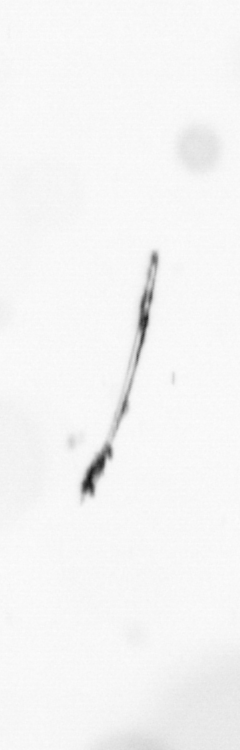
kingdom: Chromista
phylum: Ochrophyta
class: Bacillariophyceae
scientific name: Bacillariophyceae
